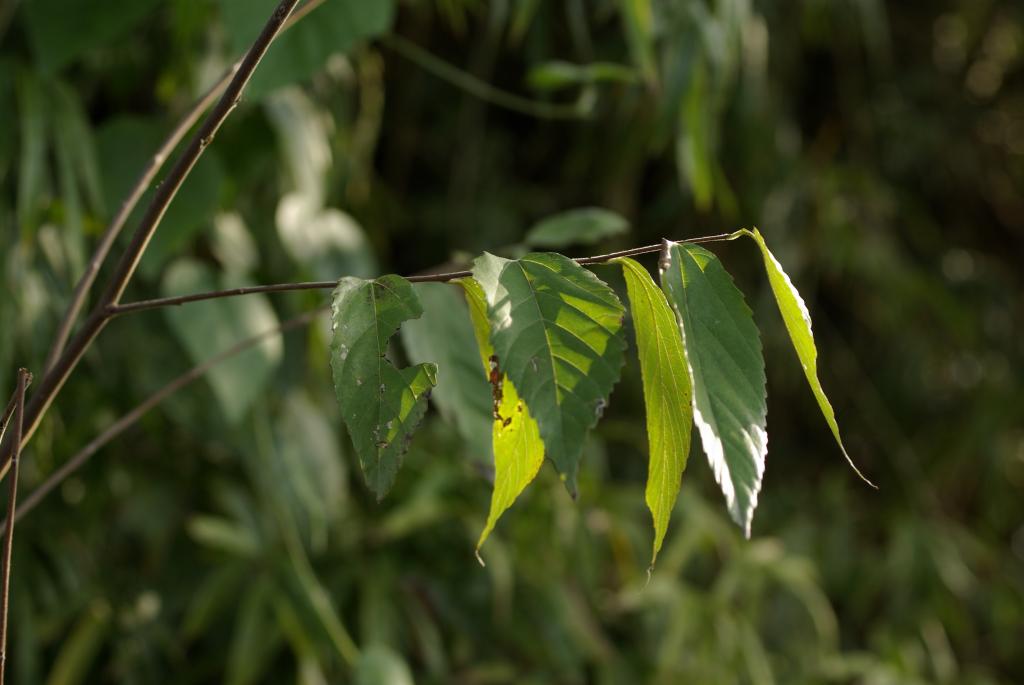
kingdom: Plantae
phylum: Tracheophyta
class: Magnoliopsida
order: Rosales
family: Cannabaceae
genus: Aphananthe
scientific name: Aphananthe aspera
